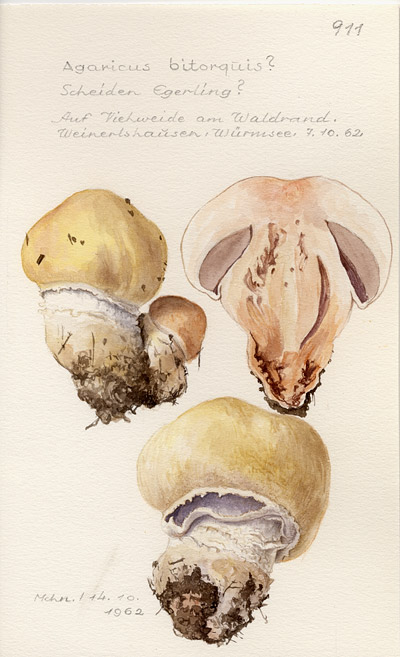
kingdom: Fungi
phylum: Basidiomycota
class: Agaricomycetes
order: Agaricales
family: Agaricaceae
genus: Agaricus
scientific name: Agaricus bitorquis
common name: Pavement mushroom
